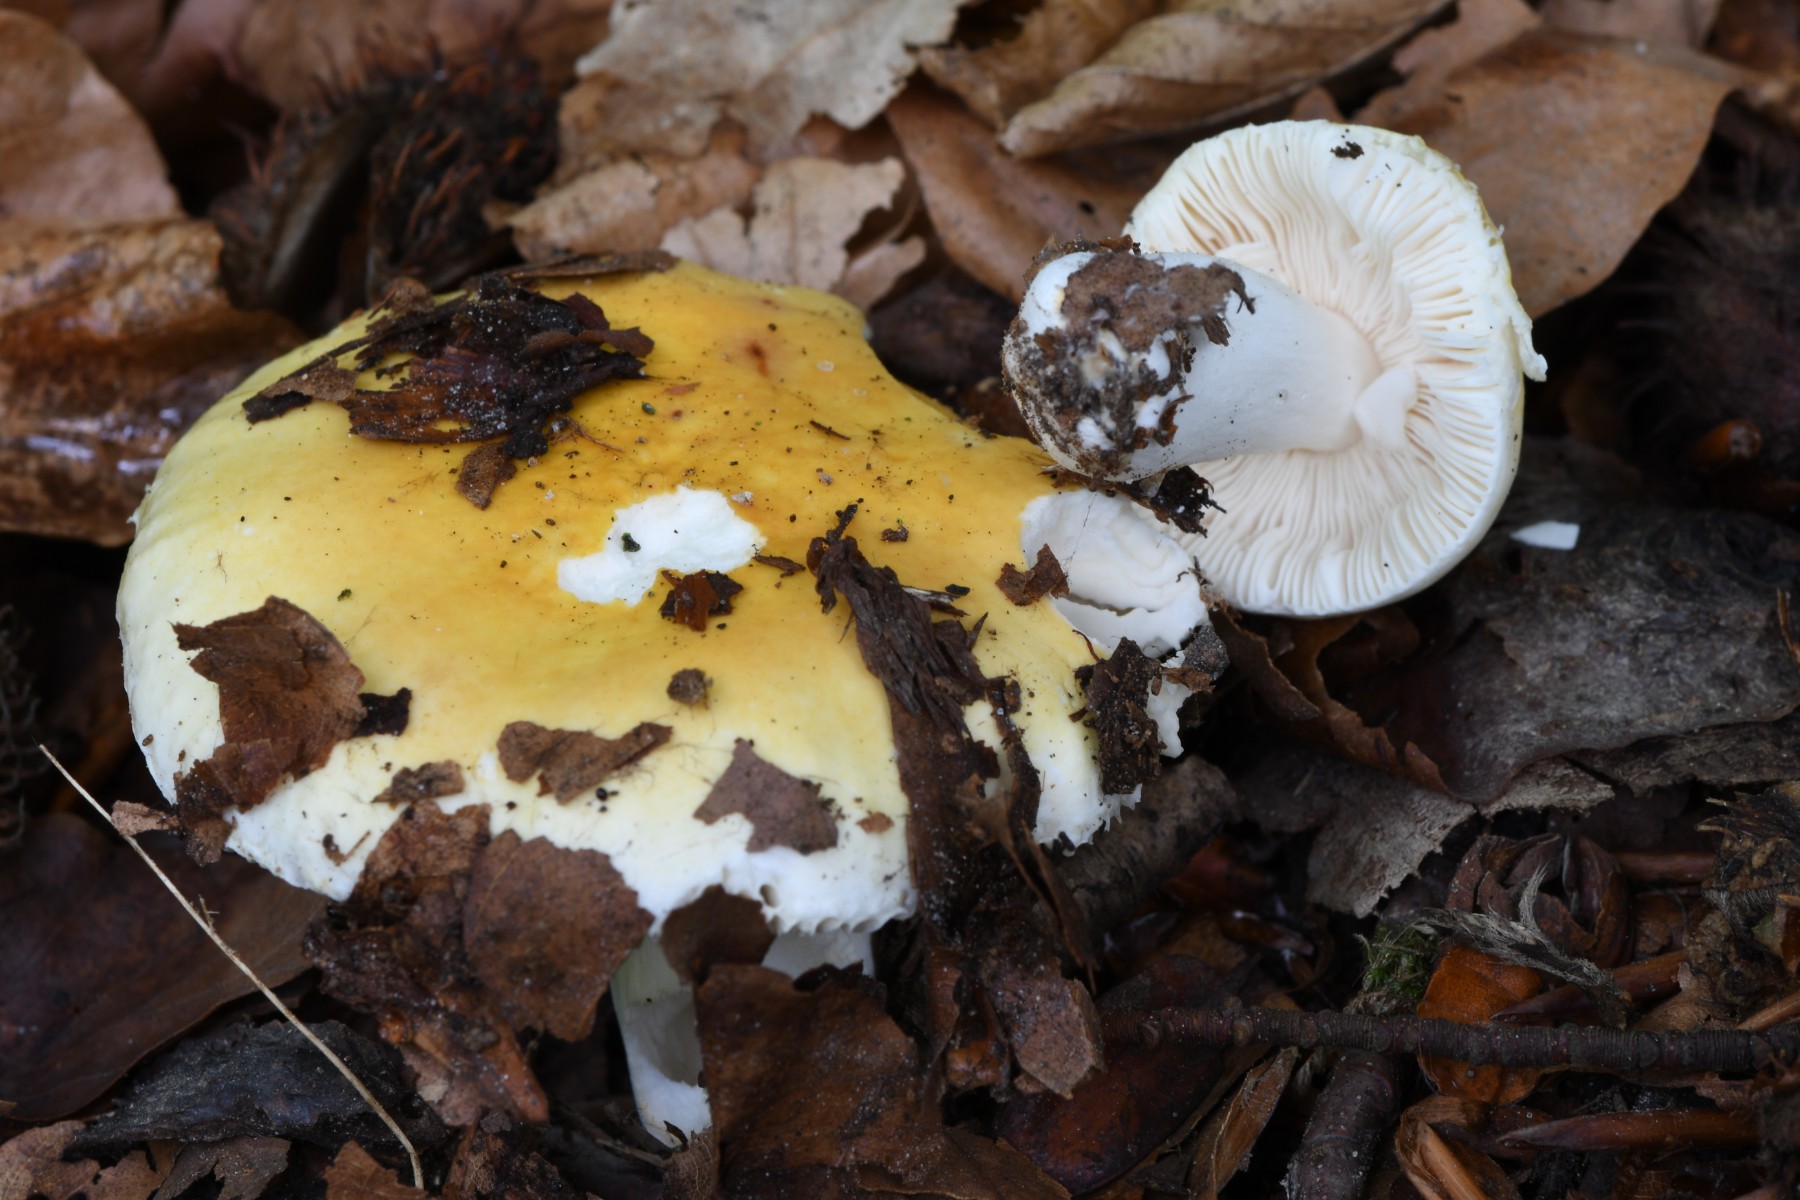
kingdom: Fungi
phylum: Basidiomycota
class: Agaricomycetes
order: Russulales
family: Russulaceae
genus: Russula
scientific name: Russula solaris
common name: sol-skørhat
